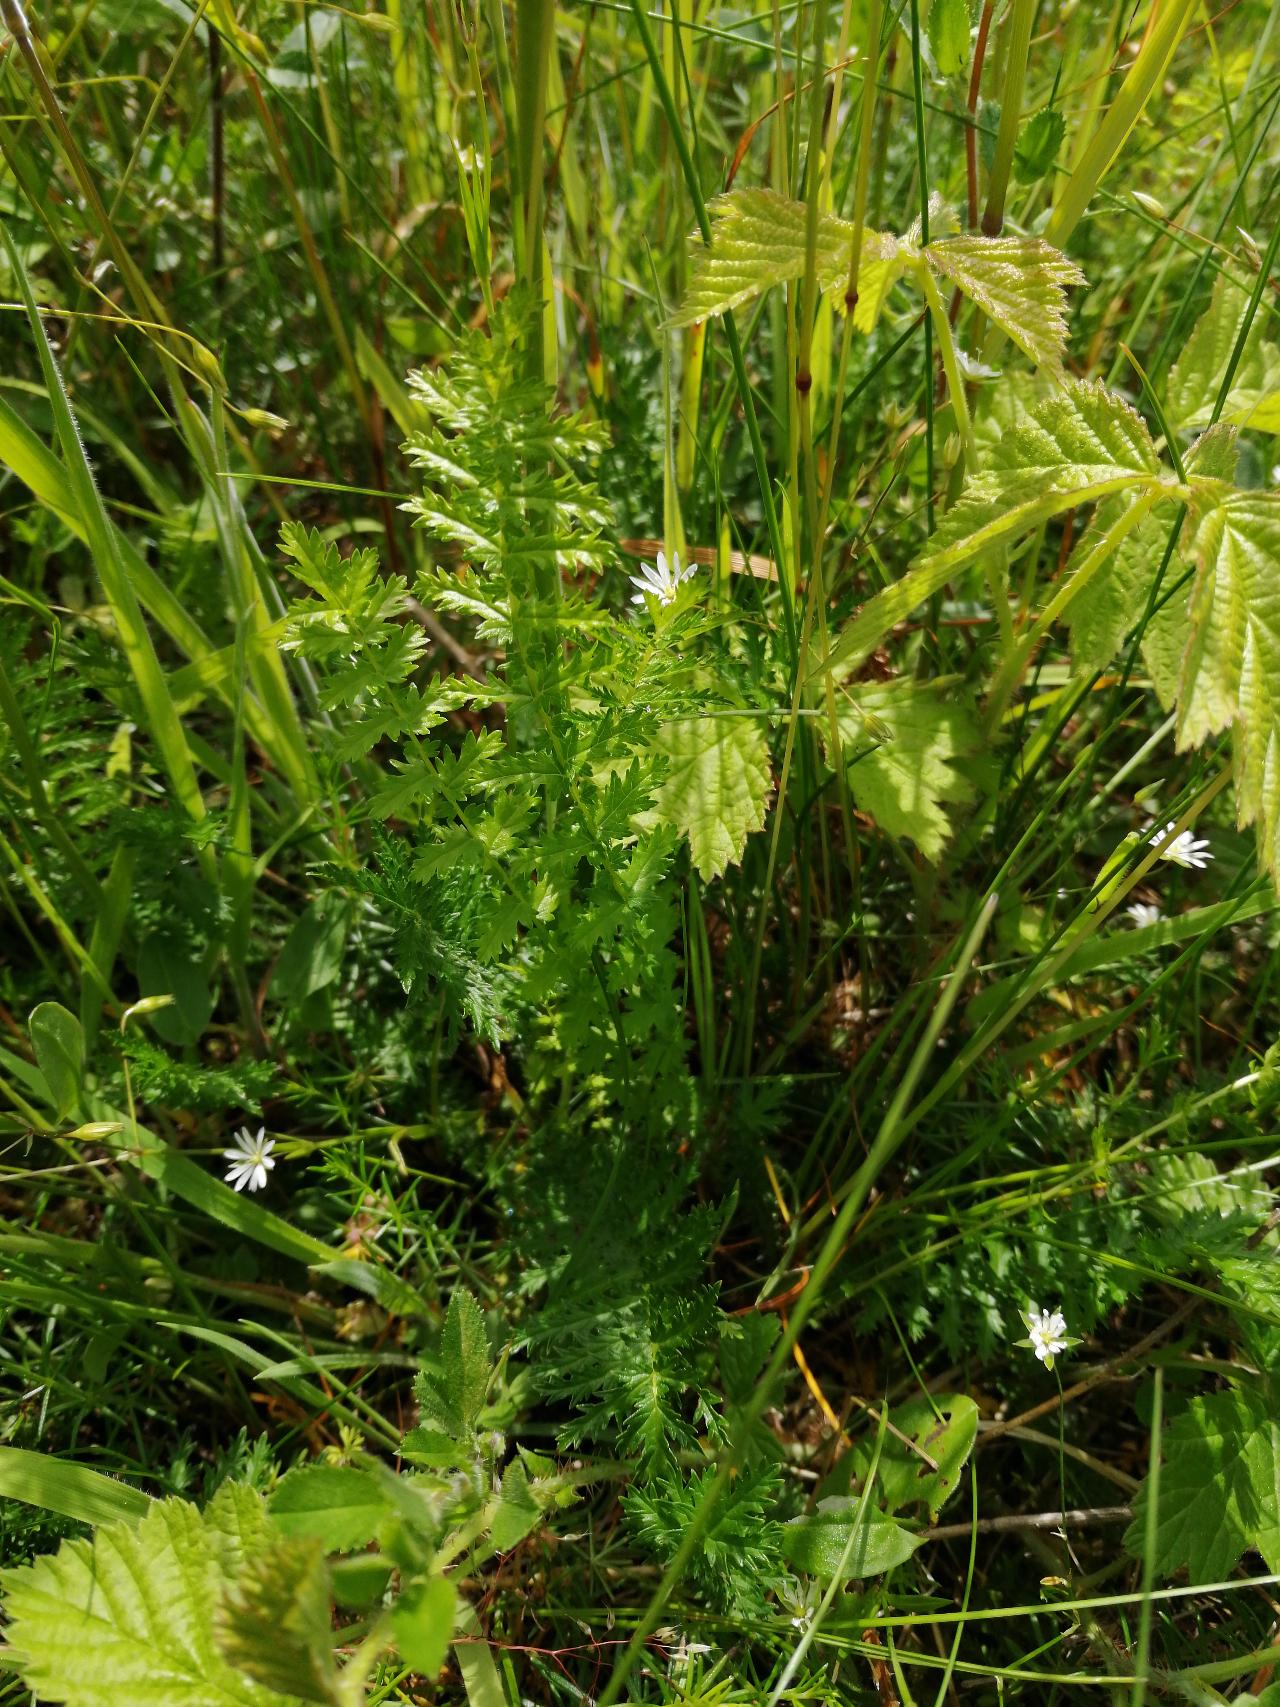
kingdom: Plantae
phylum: Tracheophyta
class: Magnoliopsida
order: Rosales
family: Rosaceae
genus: Filipendula
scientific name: Filipendula vulgaris
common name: Knoldet mjødurt
